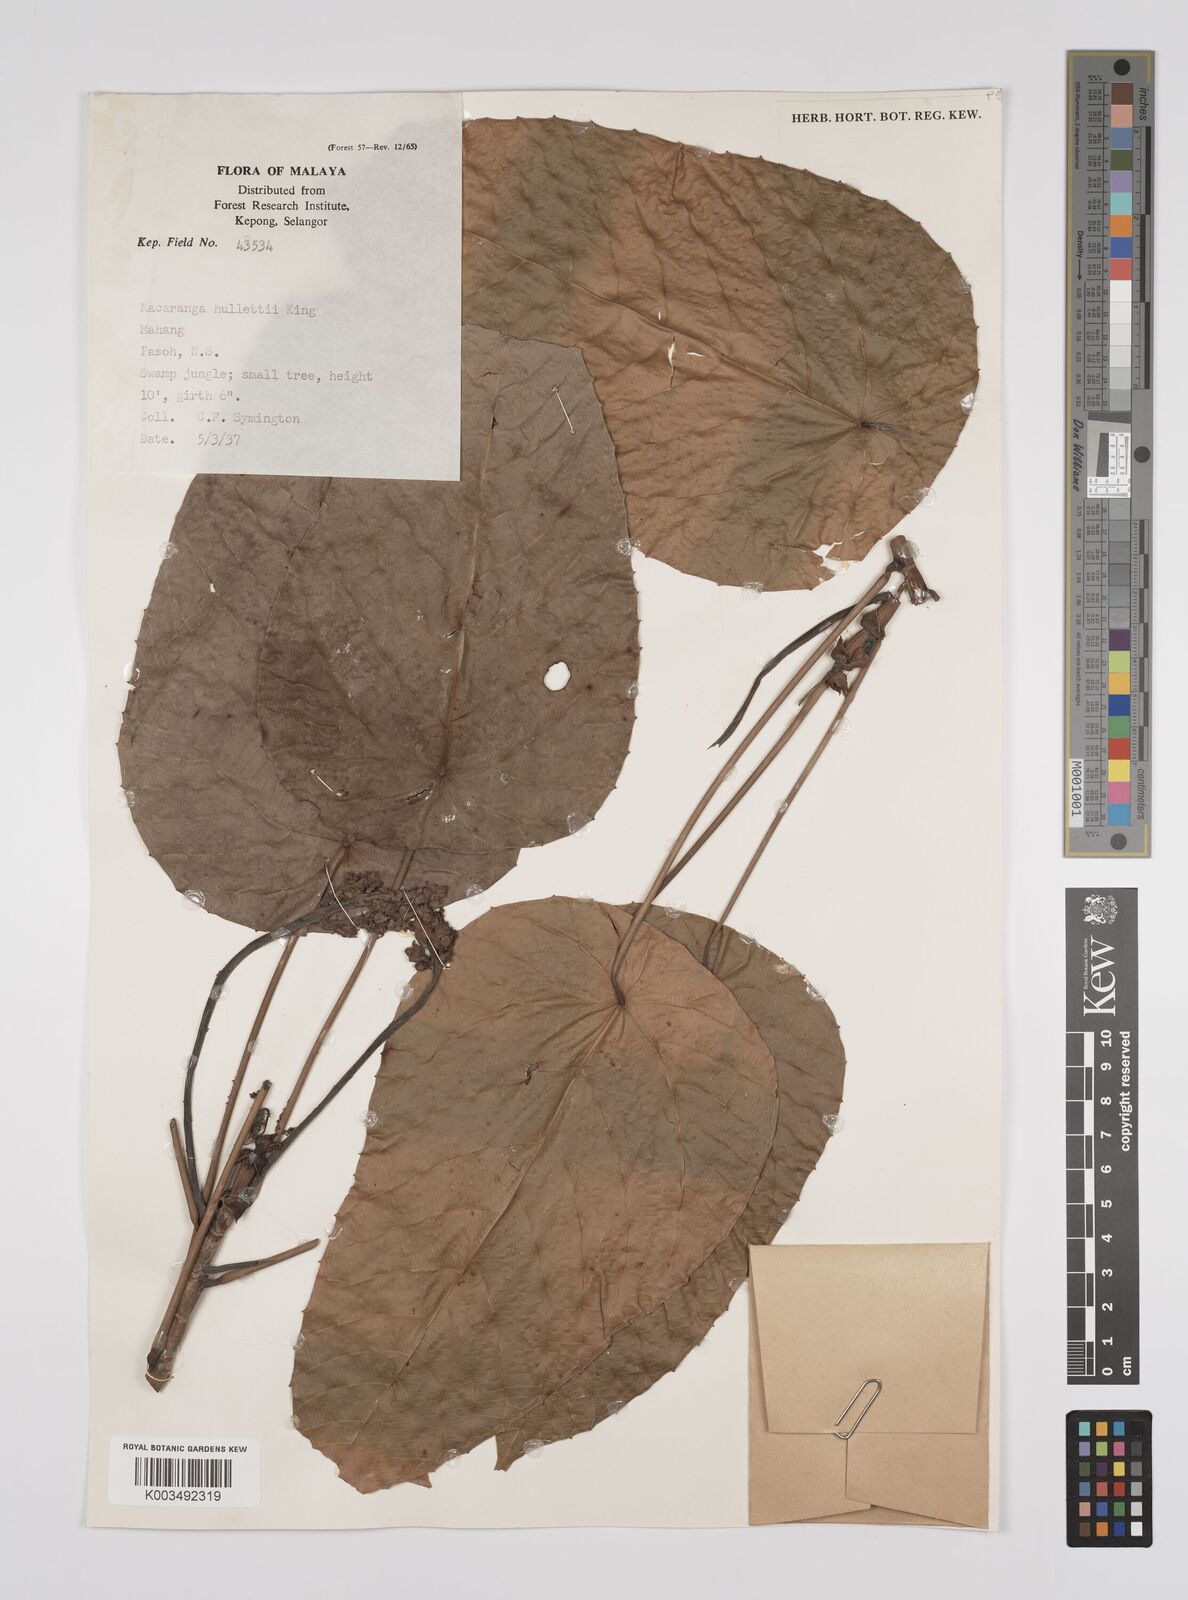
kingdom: Plantae
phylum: Tracheophyta
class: Magnoliopsida
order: Malpighiales
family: Euphorbiaceae
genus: Macaranga
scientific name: Macaranga hullettii
